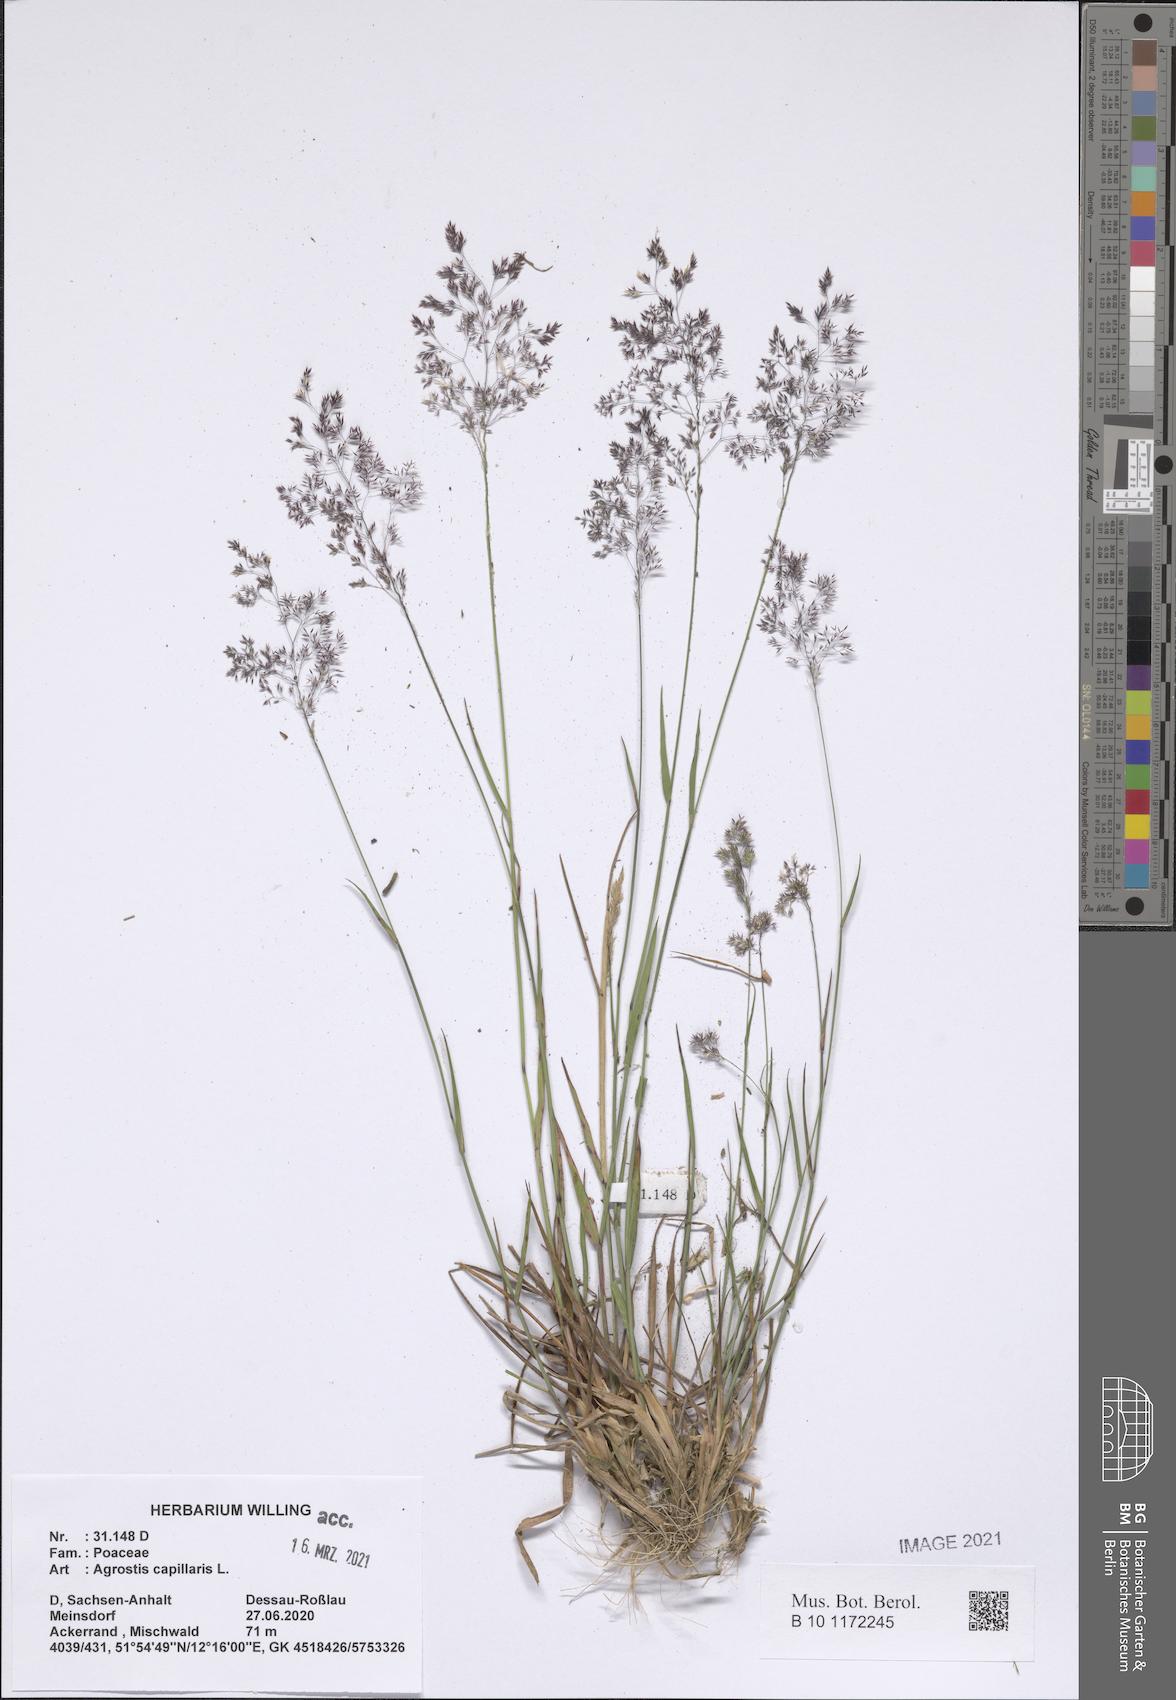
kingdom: Plantae
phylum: Tracheophyta
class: Liliopsida
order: Poales
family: Poaceae
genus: Agrostis
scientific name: Agrostis capillaris
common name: Colonial bentgrass
